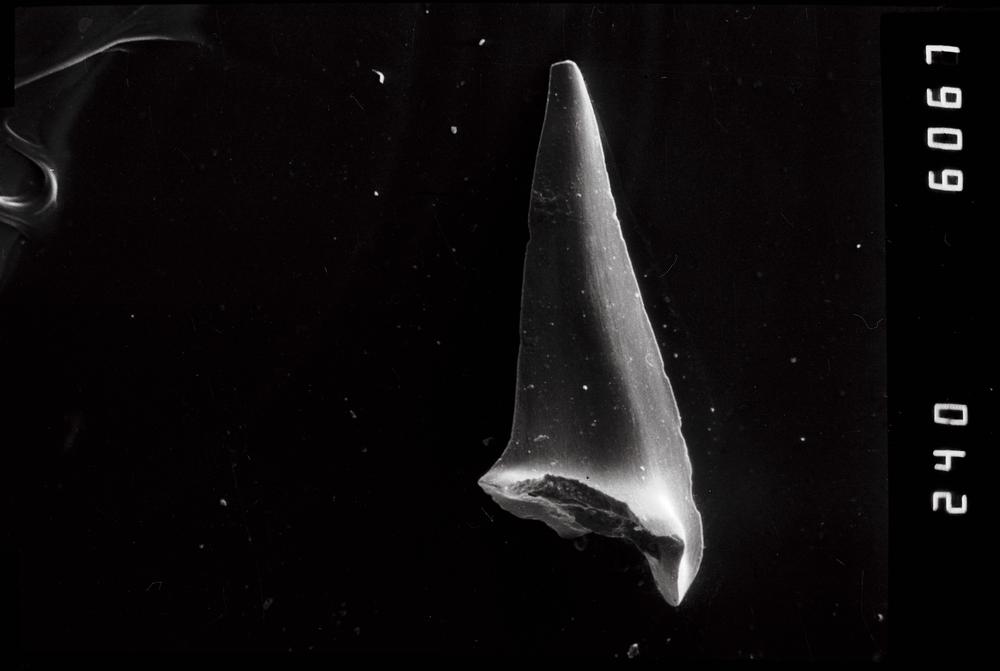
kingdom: Animalia
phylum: Chordata
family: Acodontidae
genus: Tripodus
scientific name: Tripodus
